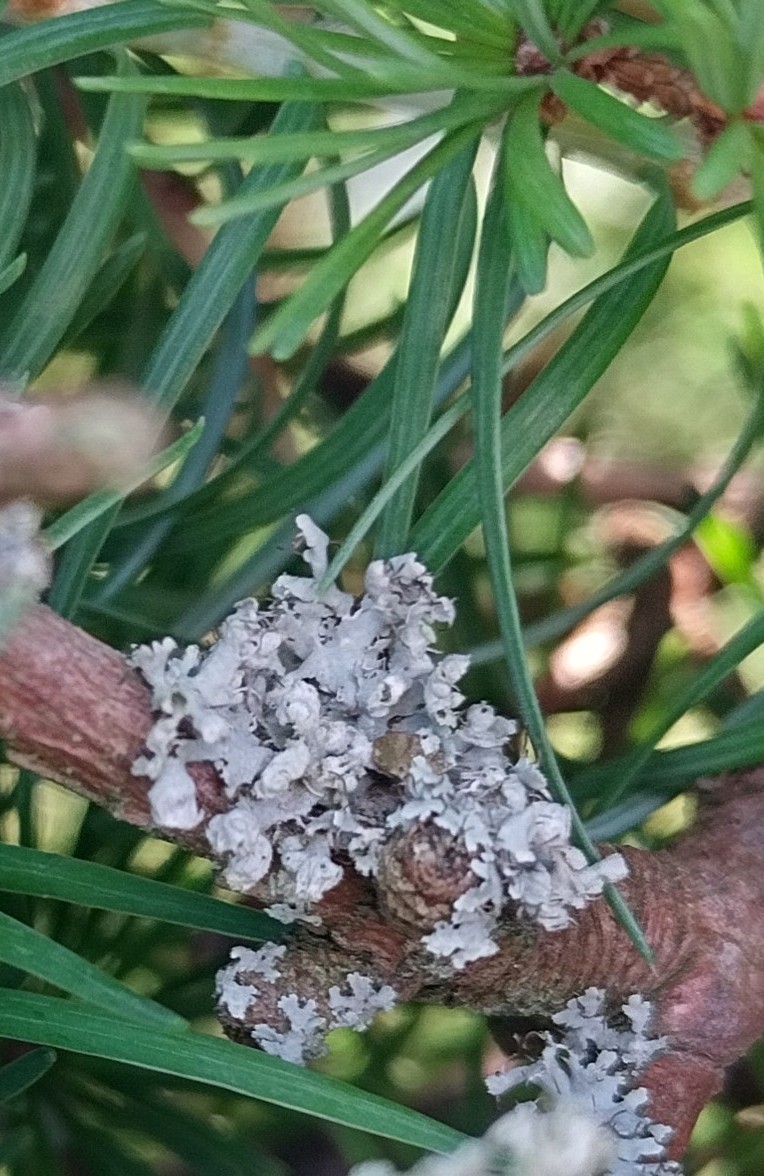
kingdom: Fungi
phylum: Ascomycota
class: Lecanoromycetes
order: Caliciales
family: Physciaceae
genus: Physcia
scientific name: Physcia adscendens
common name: hætte-rosetlav
